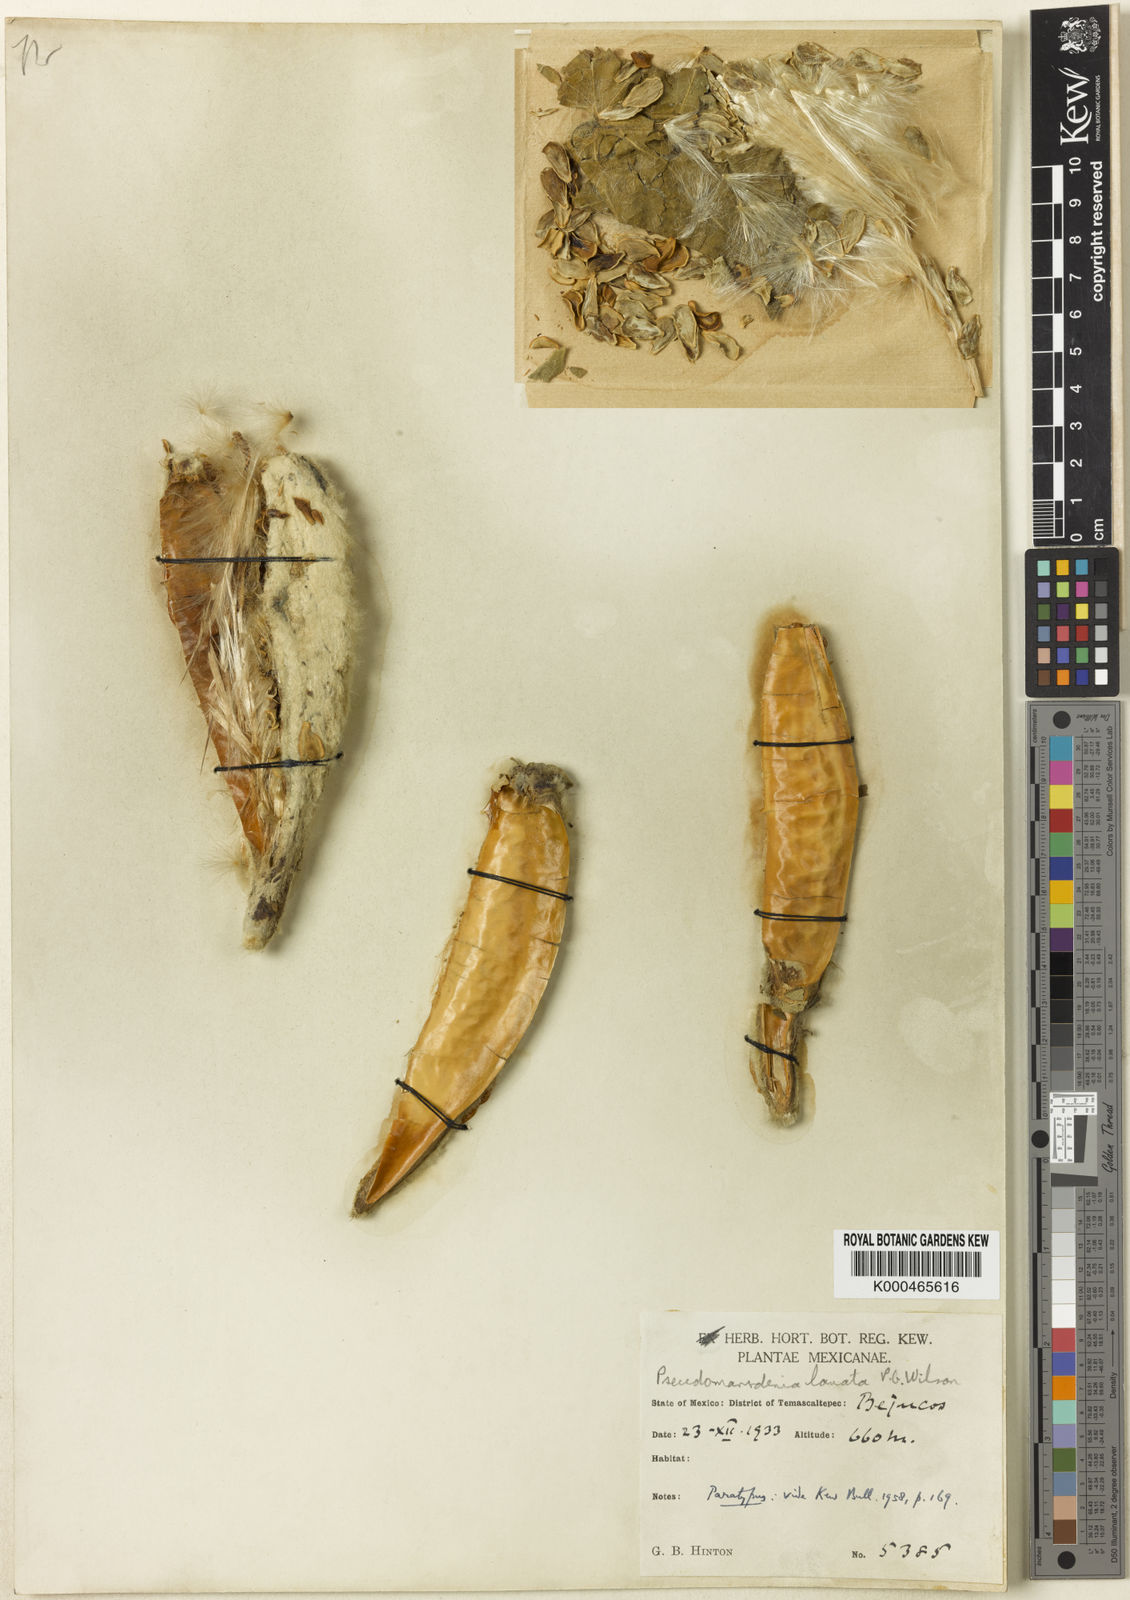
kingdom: Plantae
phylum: Tracheophyta
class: Magnoliopsida
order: Gentianales
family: Apocynaceae
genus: Ruehssia
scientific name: Ruehssia lanata
